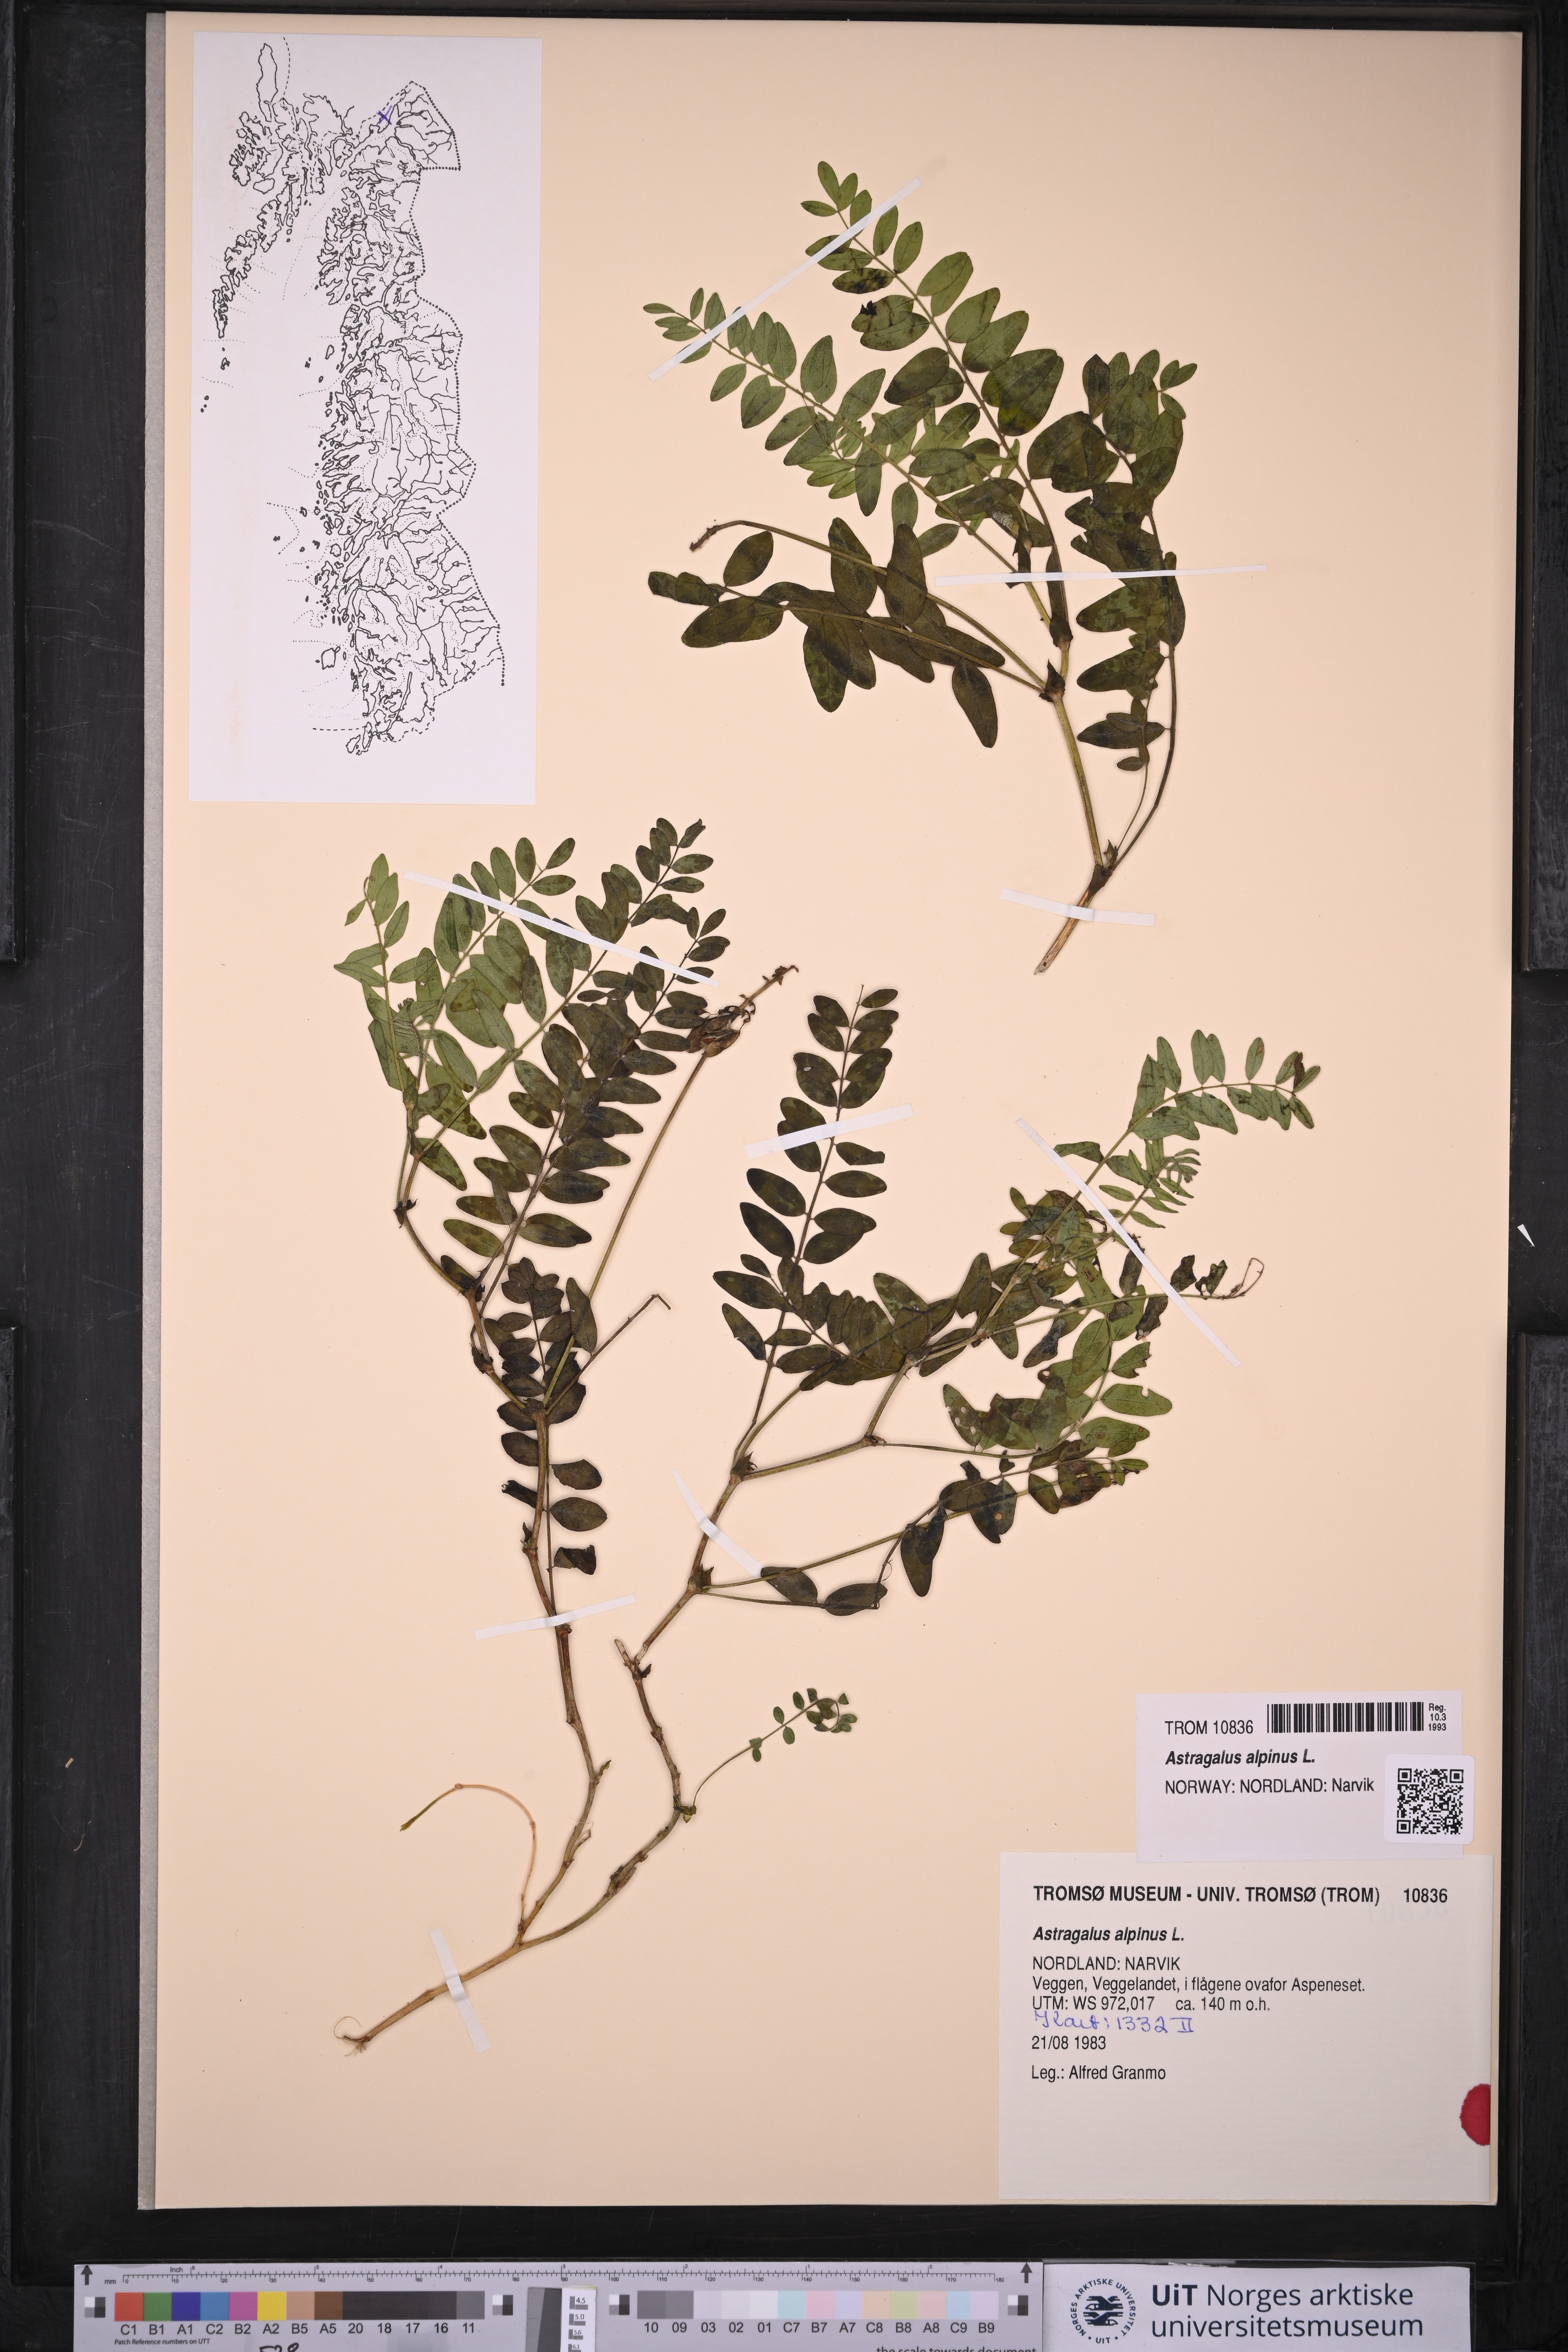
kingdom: Plantae
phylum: Tracheophyta
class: Magnoliopsida
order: Fabales
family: Fabaceae
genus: Astragalus
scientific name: Astragalus alpinus
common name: Alpine milk-vetch
